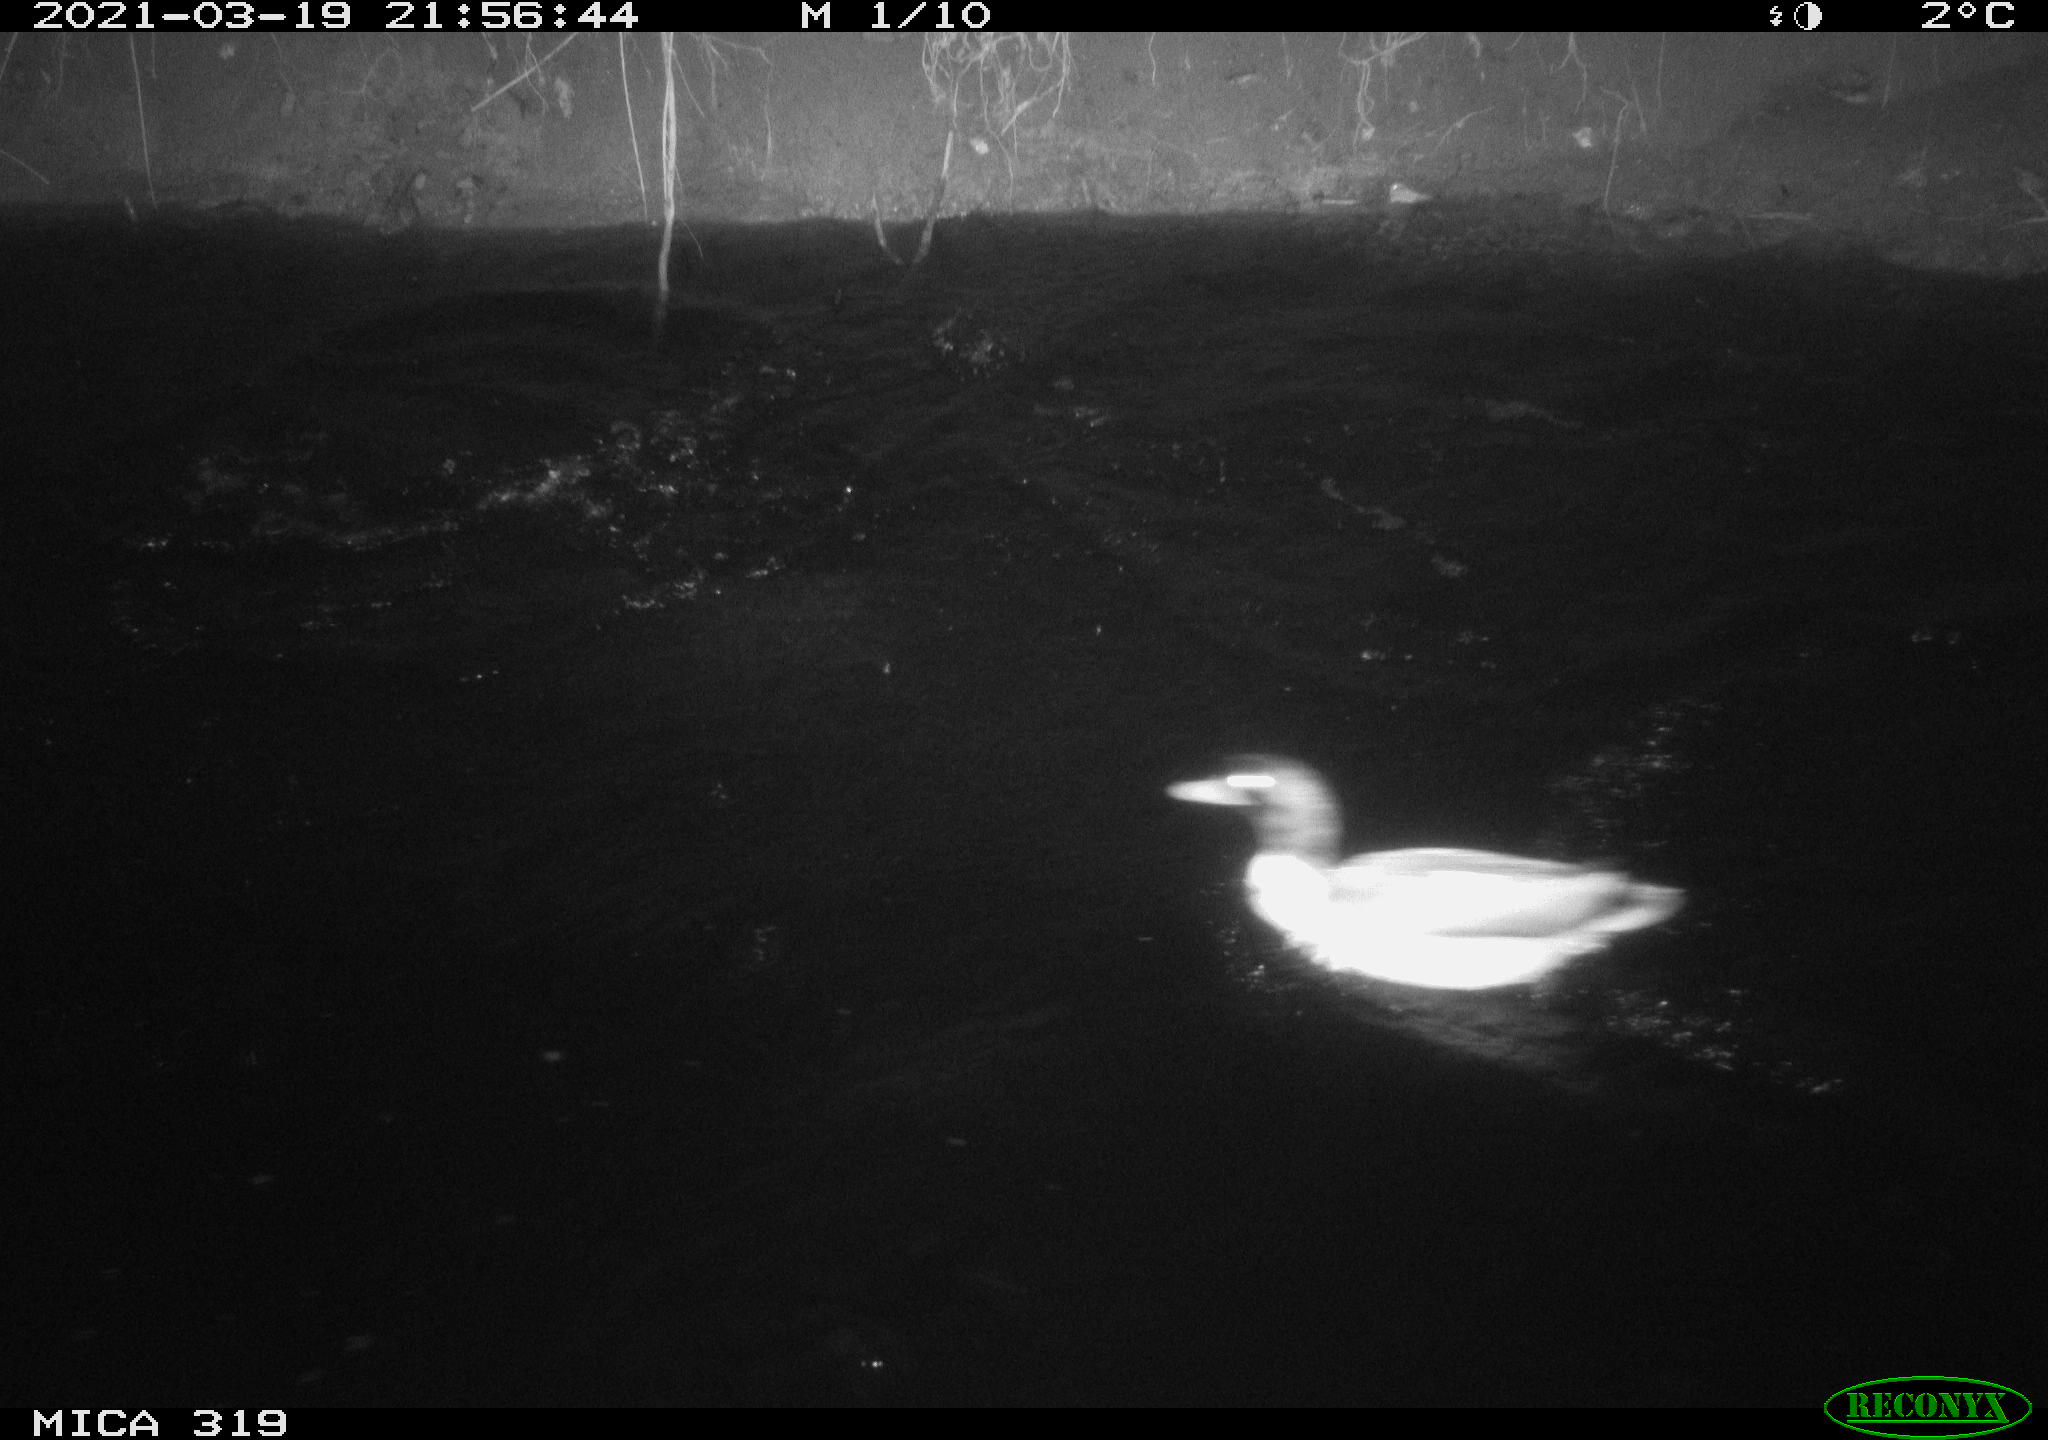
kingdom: Animalia
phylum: Chordata
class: Aves
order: Anseriformes
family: Anatidae
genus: Anas
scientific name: Anas platyrhynchos
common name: Mallard
